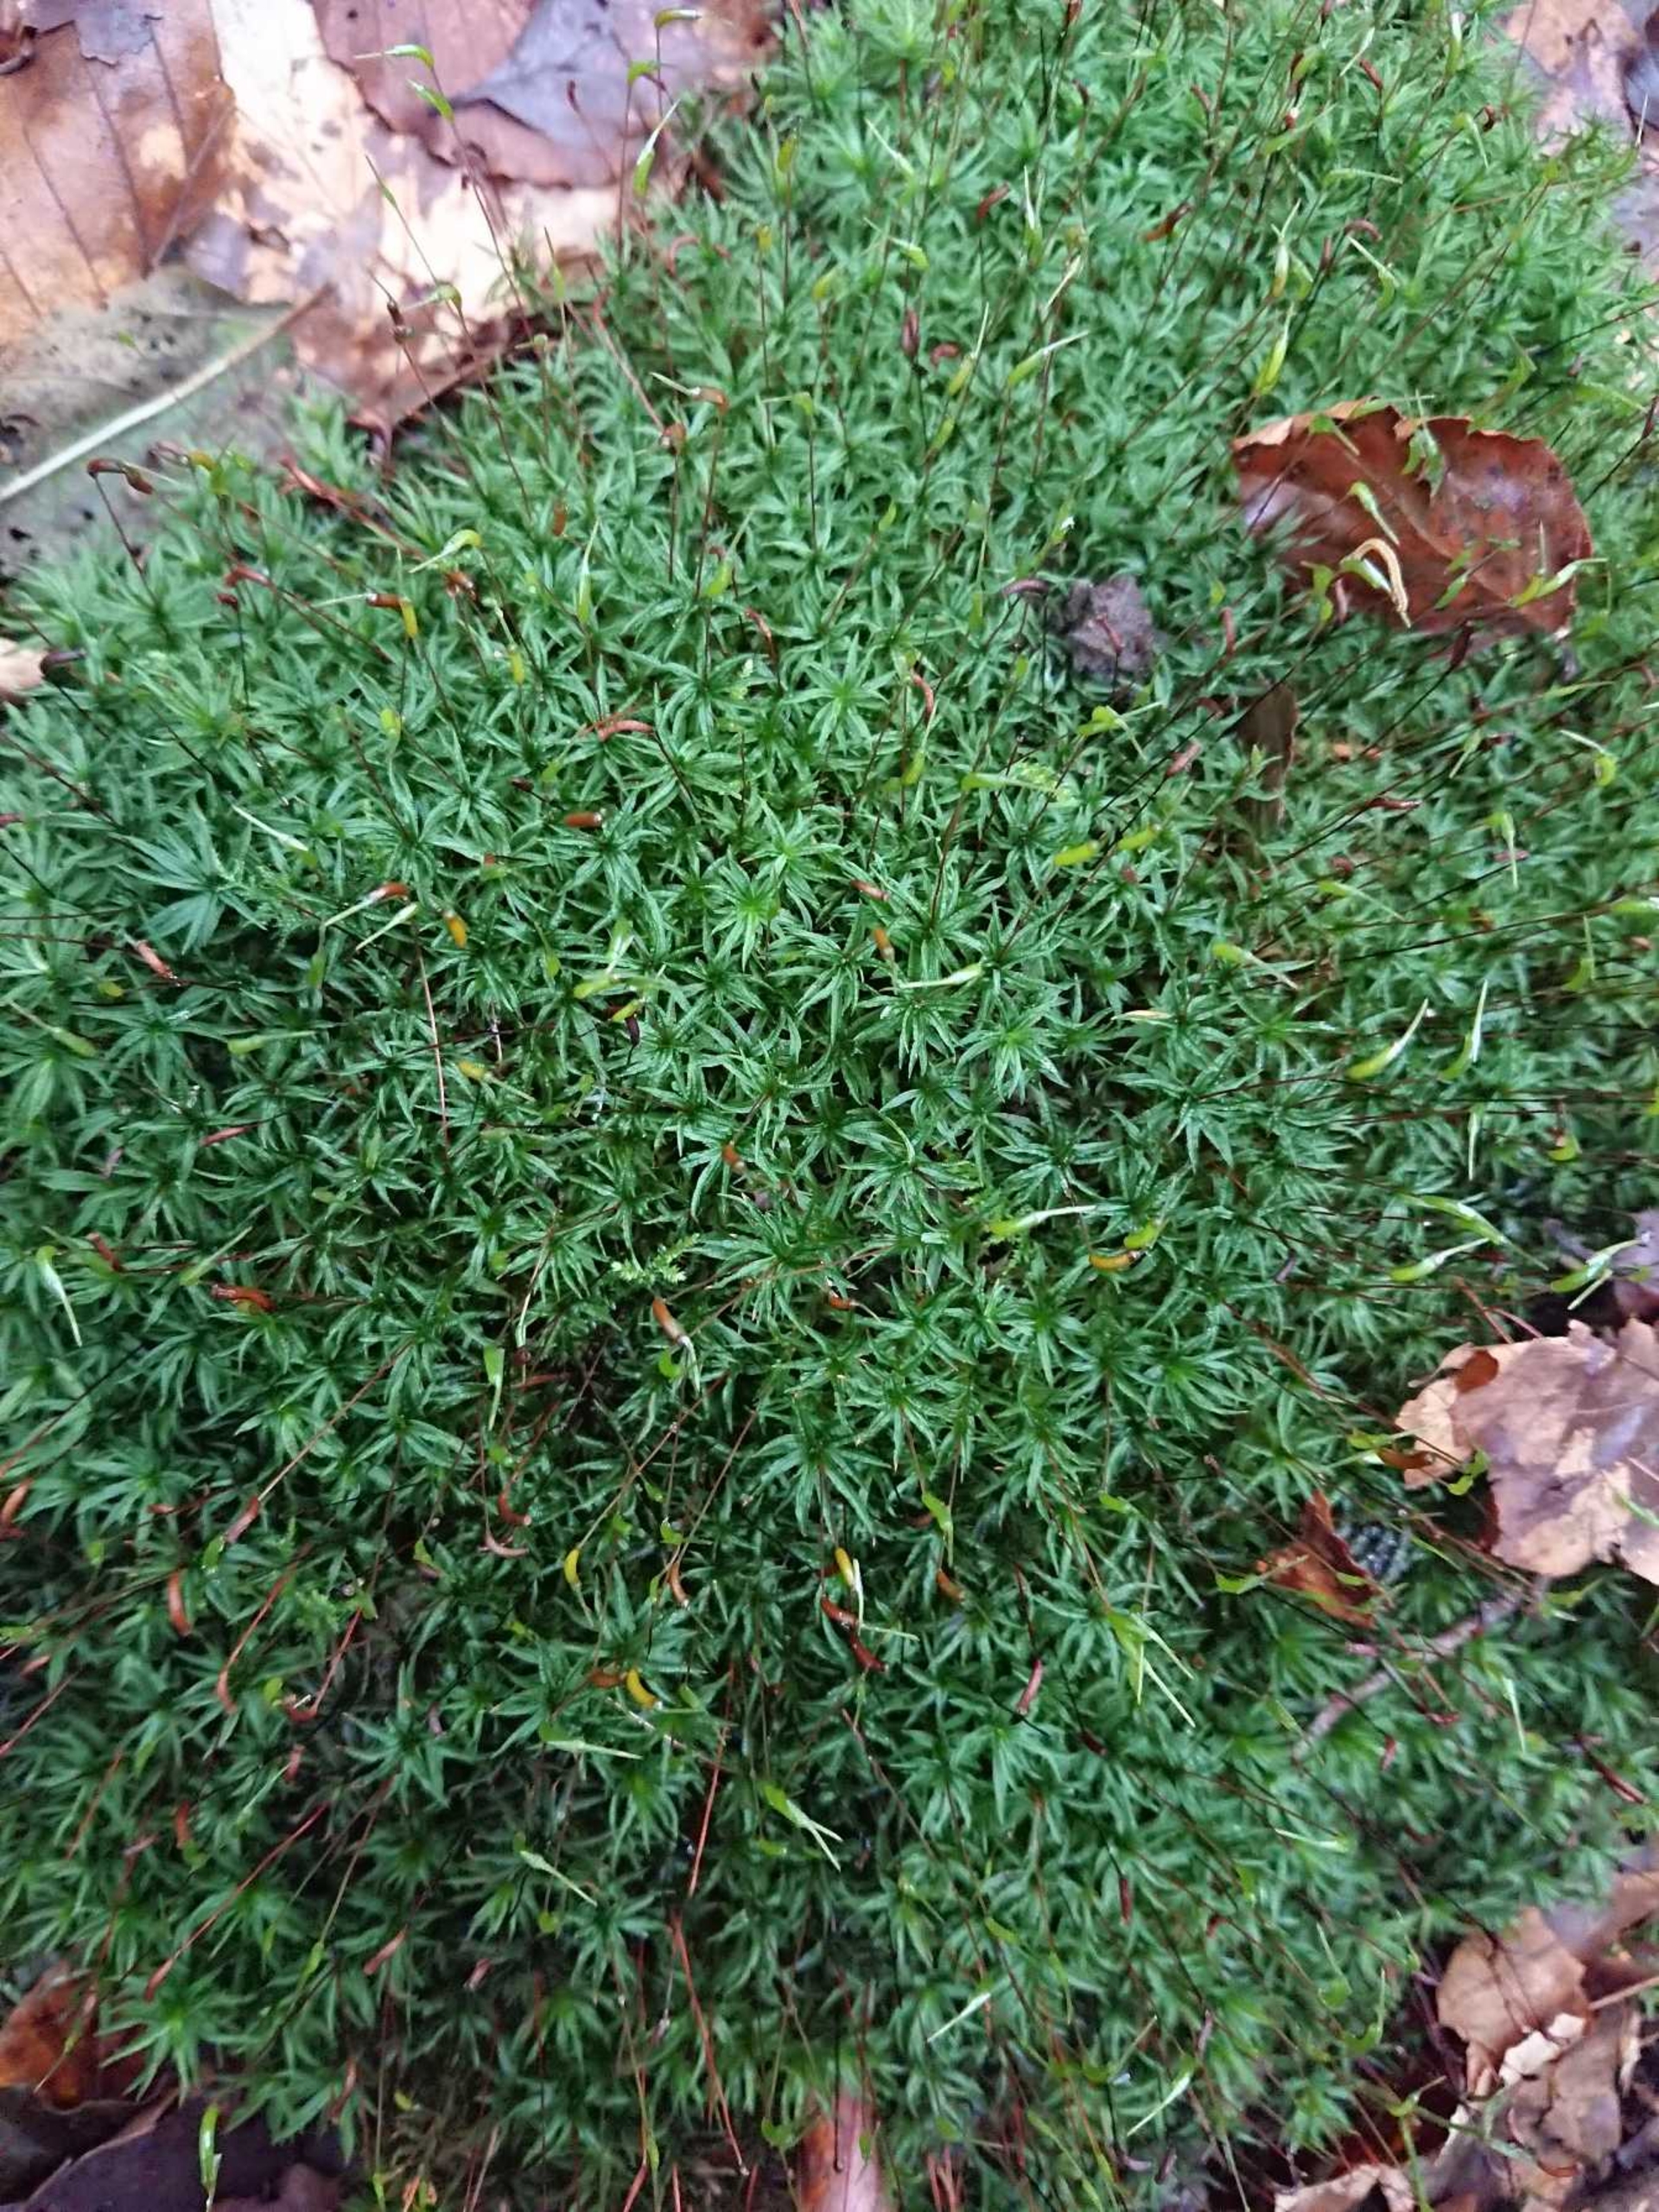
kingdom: Plantae
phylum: Bryophyta
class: Polytrichopsida
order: Polytrichales
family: Polytrichaceae
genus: Atrichum
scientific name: Atrichum undulatum
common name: Bølget katrinemos
